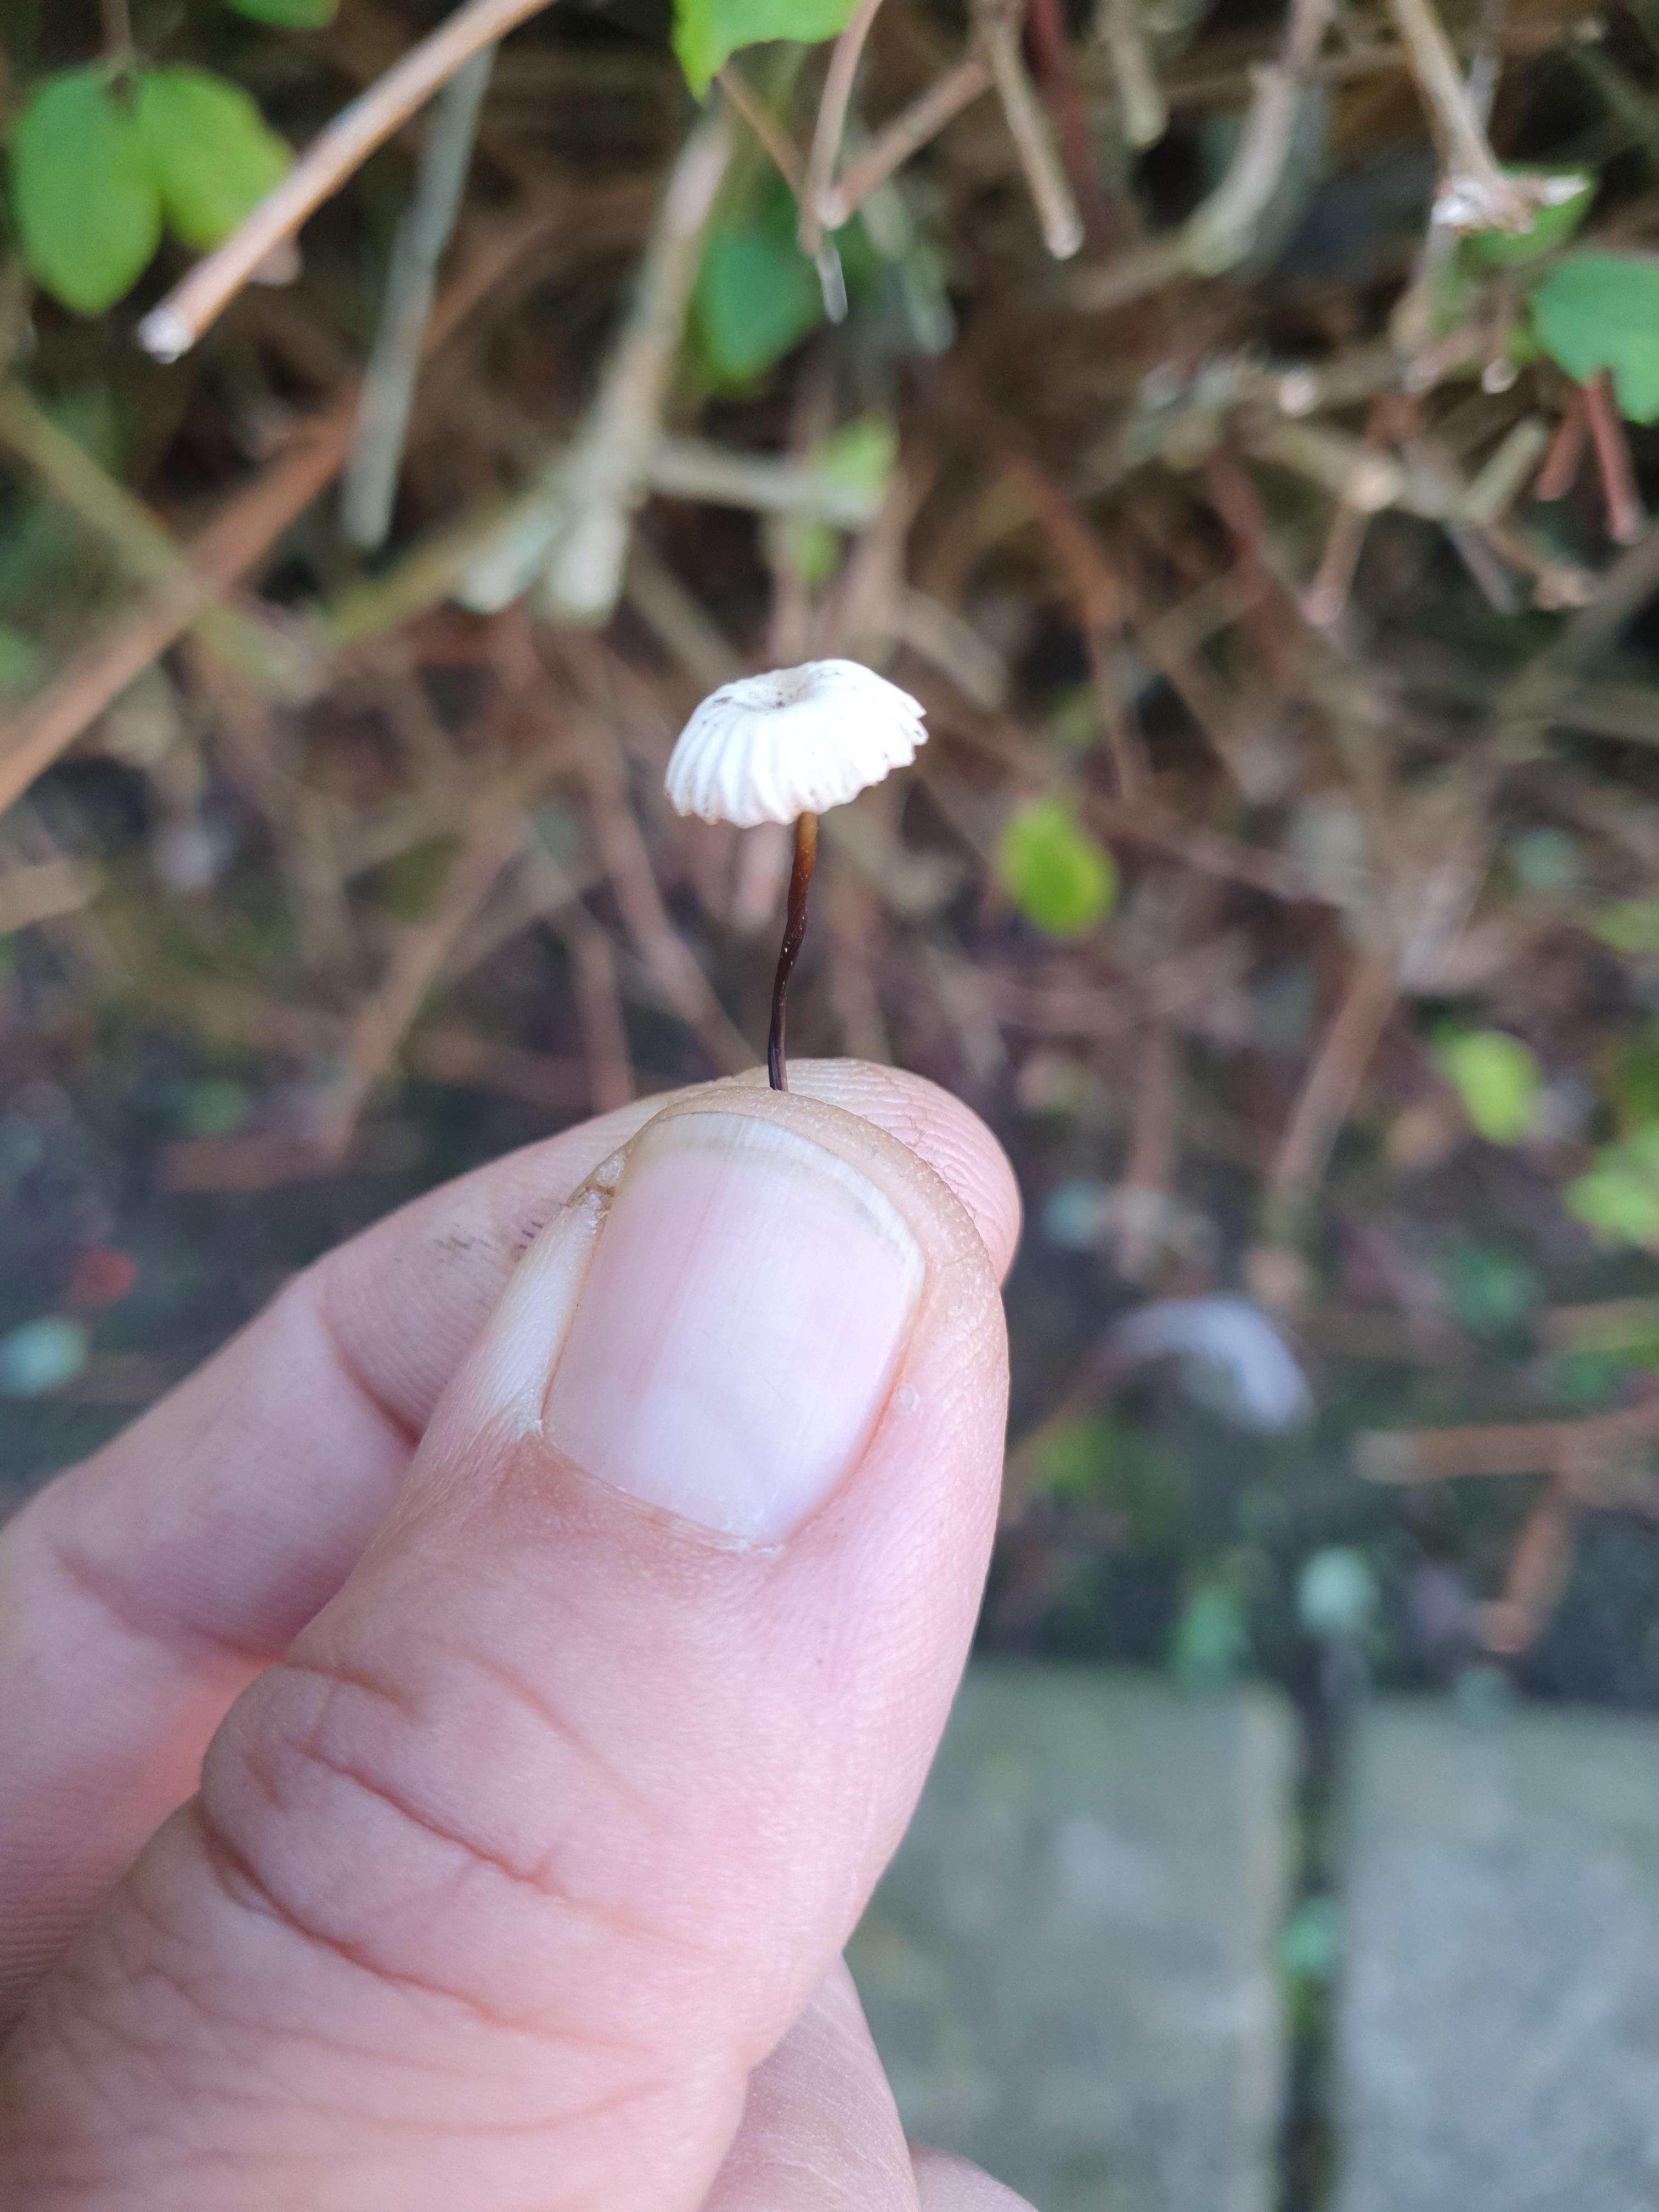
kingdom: Fungi
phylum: Basidiomycota
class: Agaricomycetes
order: Agaricales
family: Marasmiaceae
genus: Marasmius
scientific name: Marasmius rotula
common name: hjul-bruskhat
